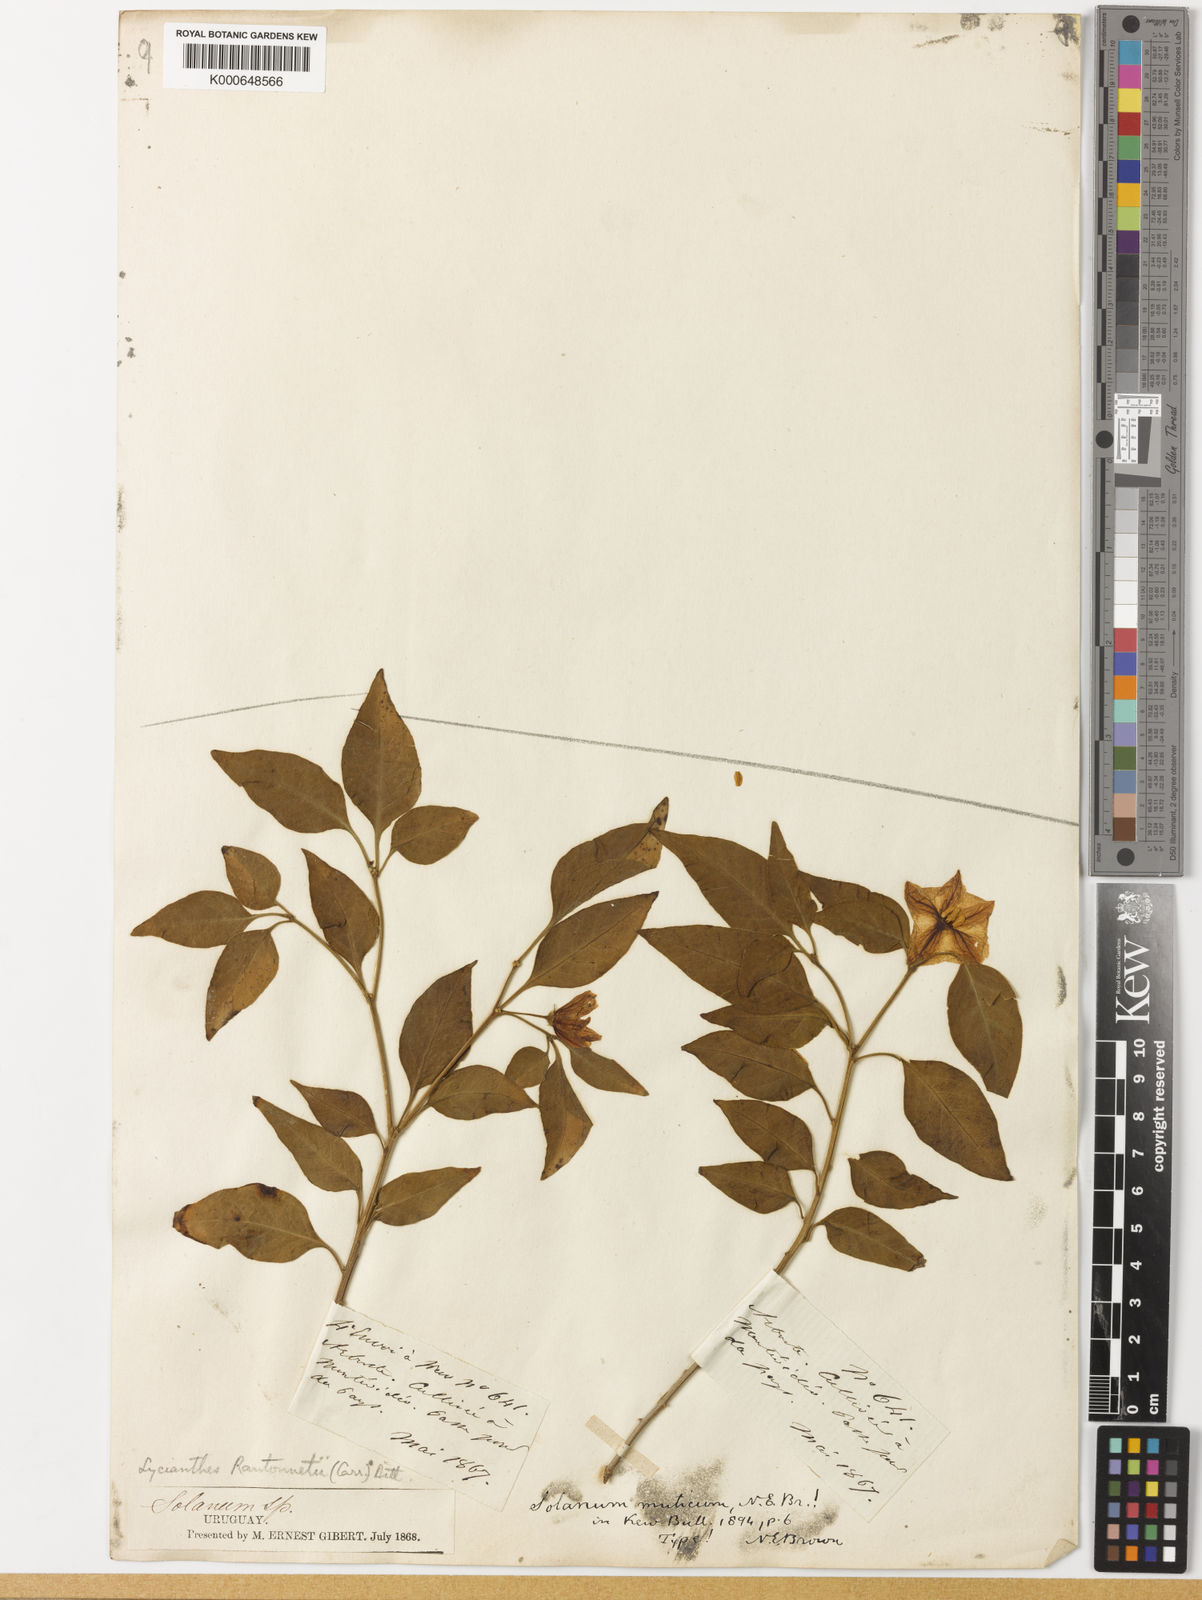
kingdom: Plantae
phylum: Tracheophyta
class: Magnoliopsida
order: Solanales
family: Solanaceae
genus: Lycianthes
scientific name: Lycianthes
